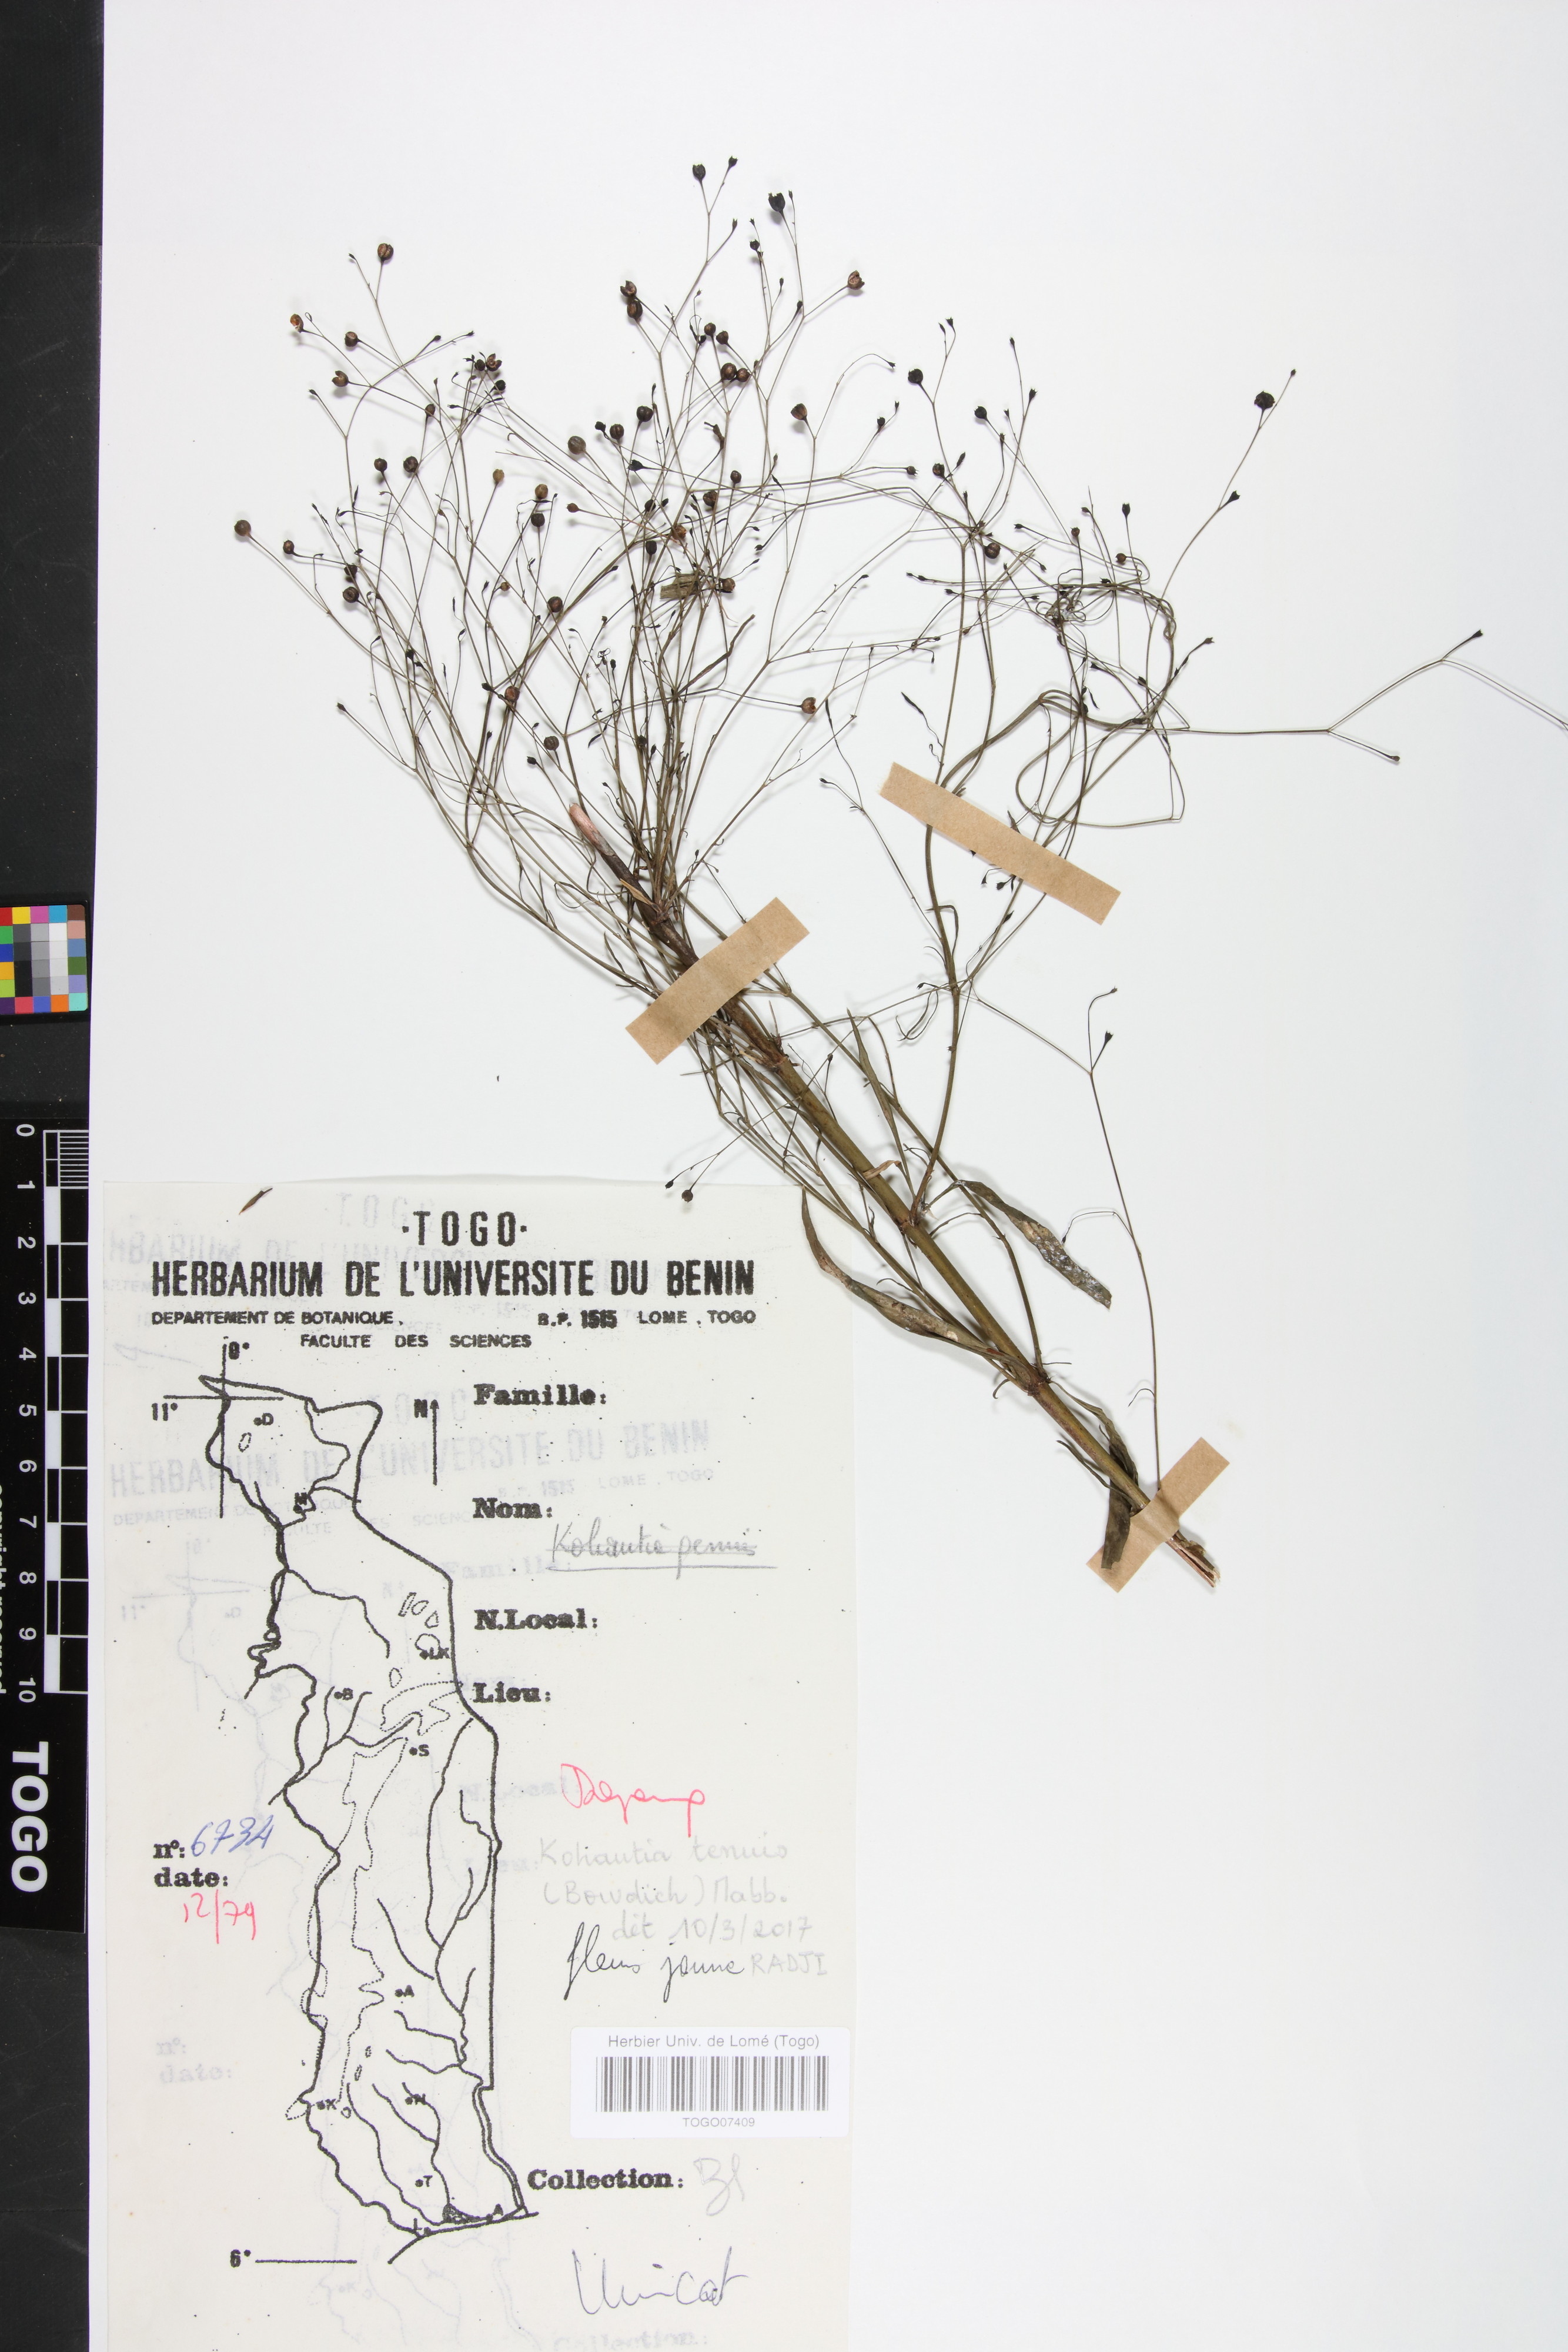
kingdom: Plantae
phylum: Tracheophyta
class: Magnoliopsida
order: Gentianales
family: Rubiaceae
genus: Kohautia
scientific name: Kohautia
